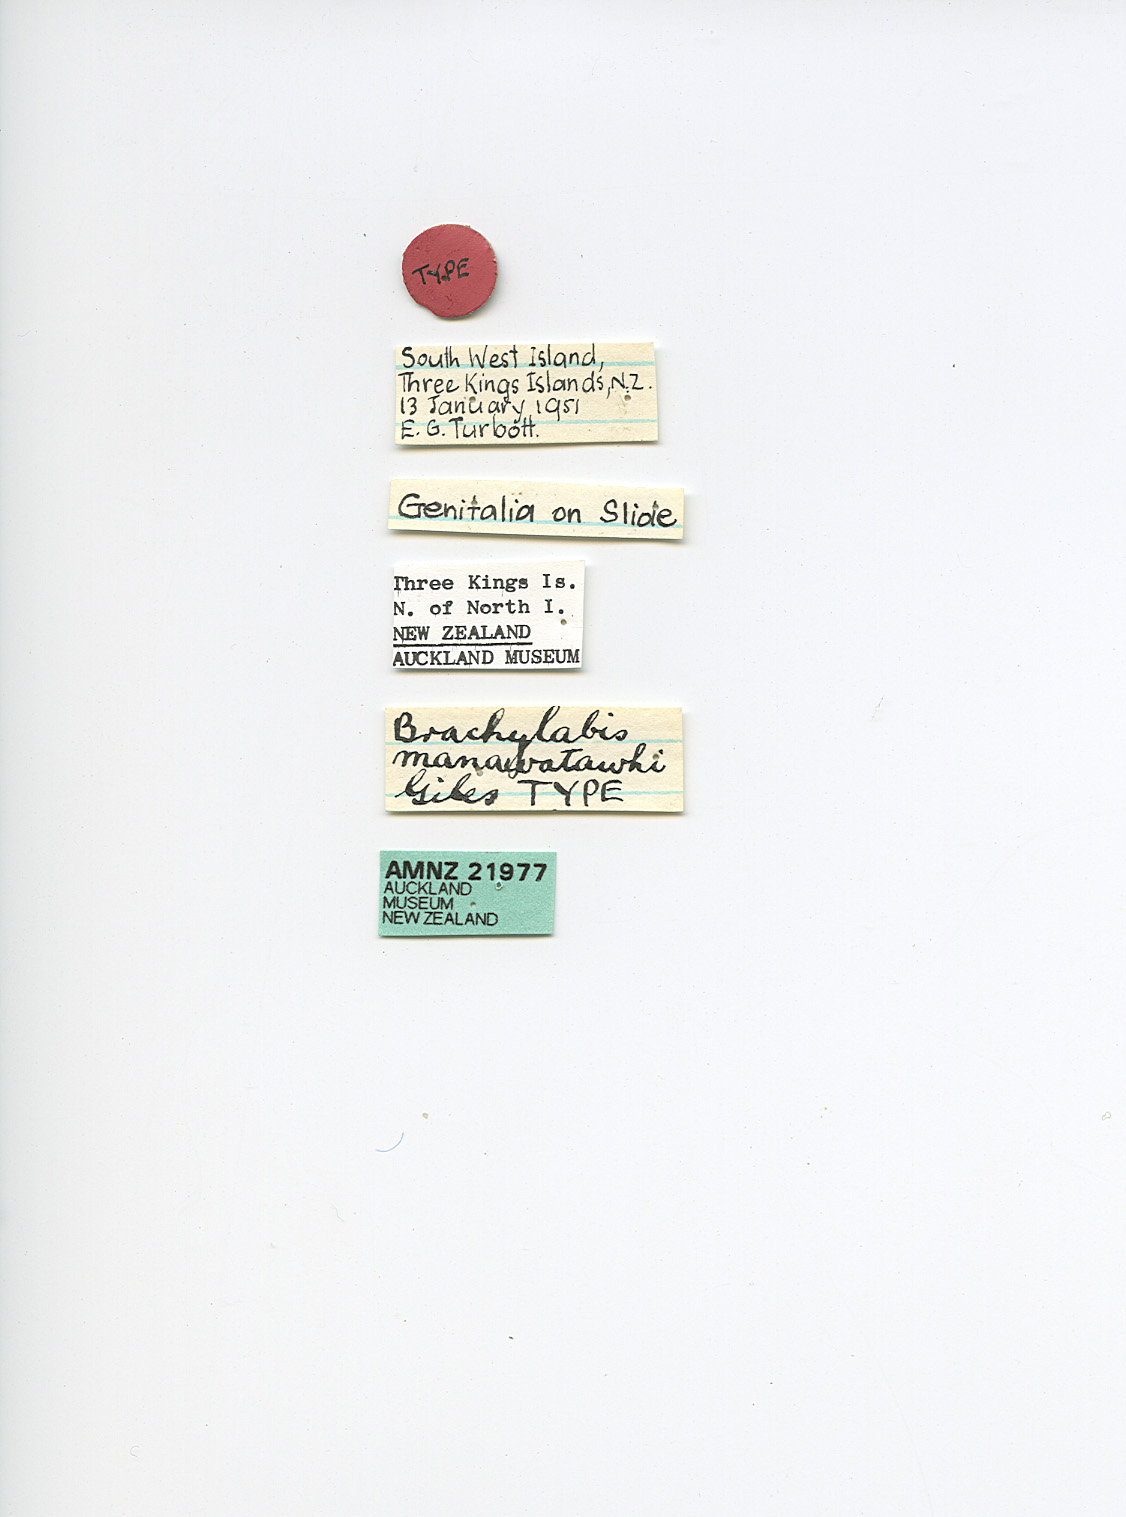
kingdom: Animalia
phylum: Arthropoda
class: Insecta
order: Dermaptera
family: Anisolabididae
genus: Brachylabis
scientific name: Brachylabis manawatawhi
